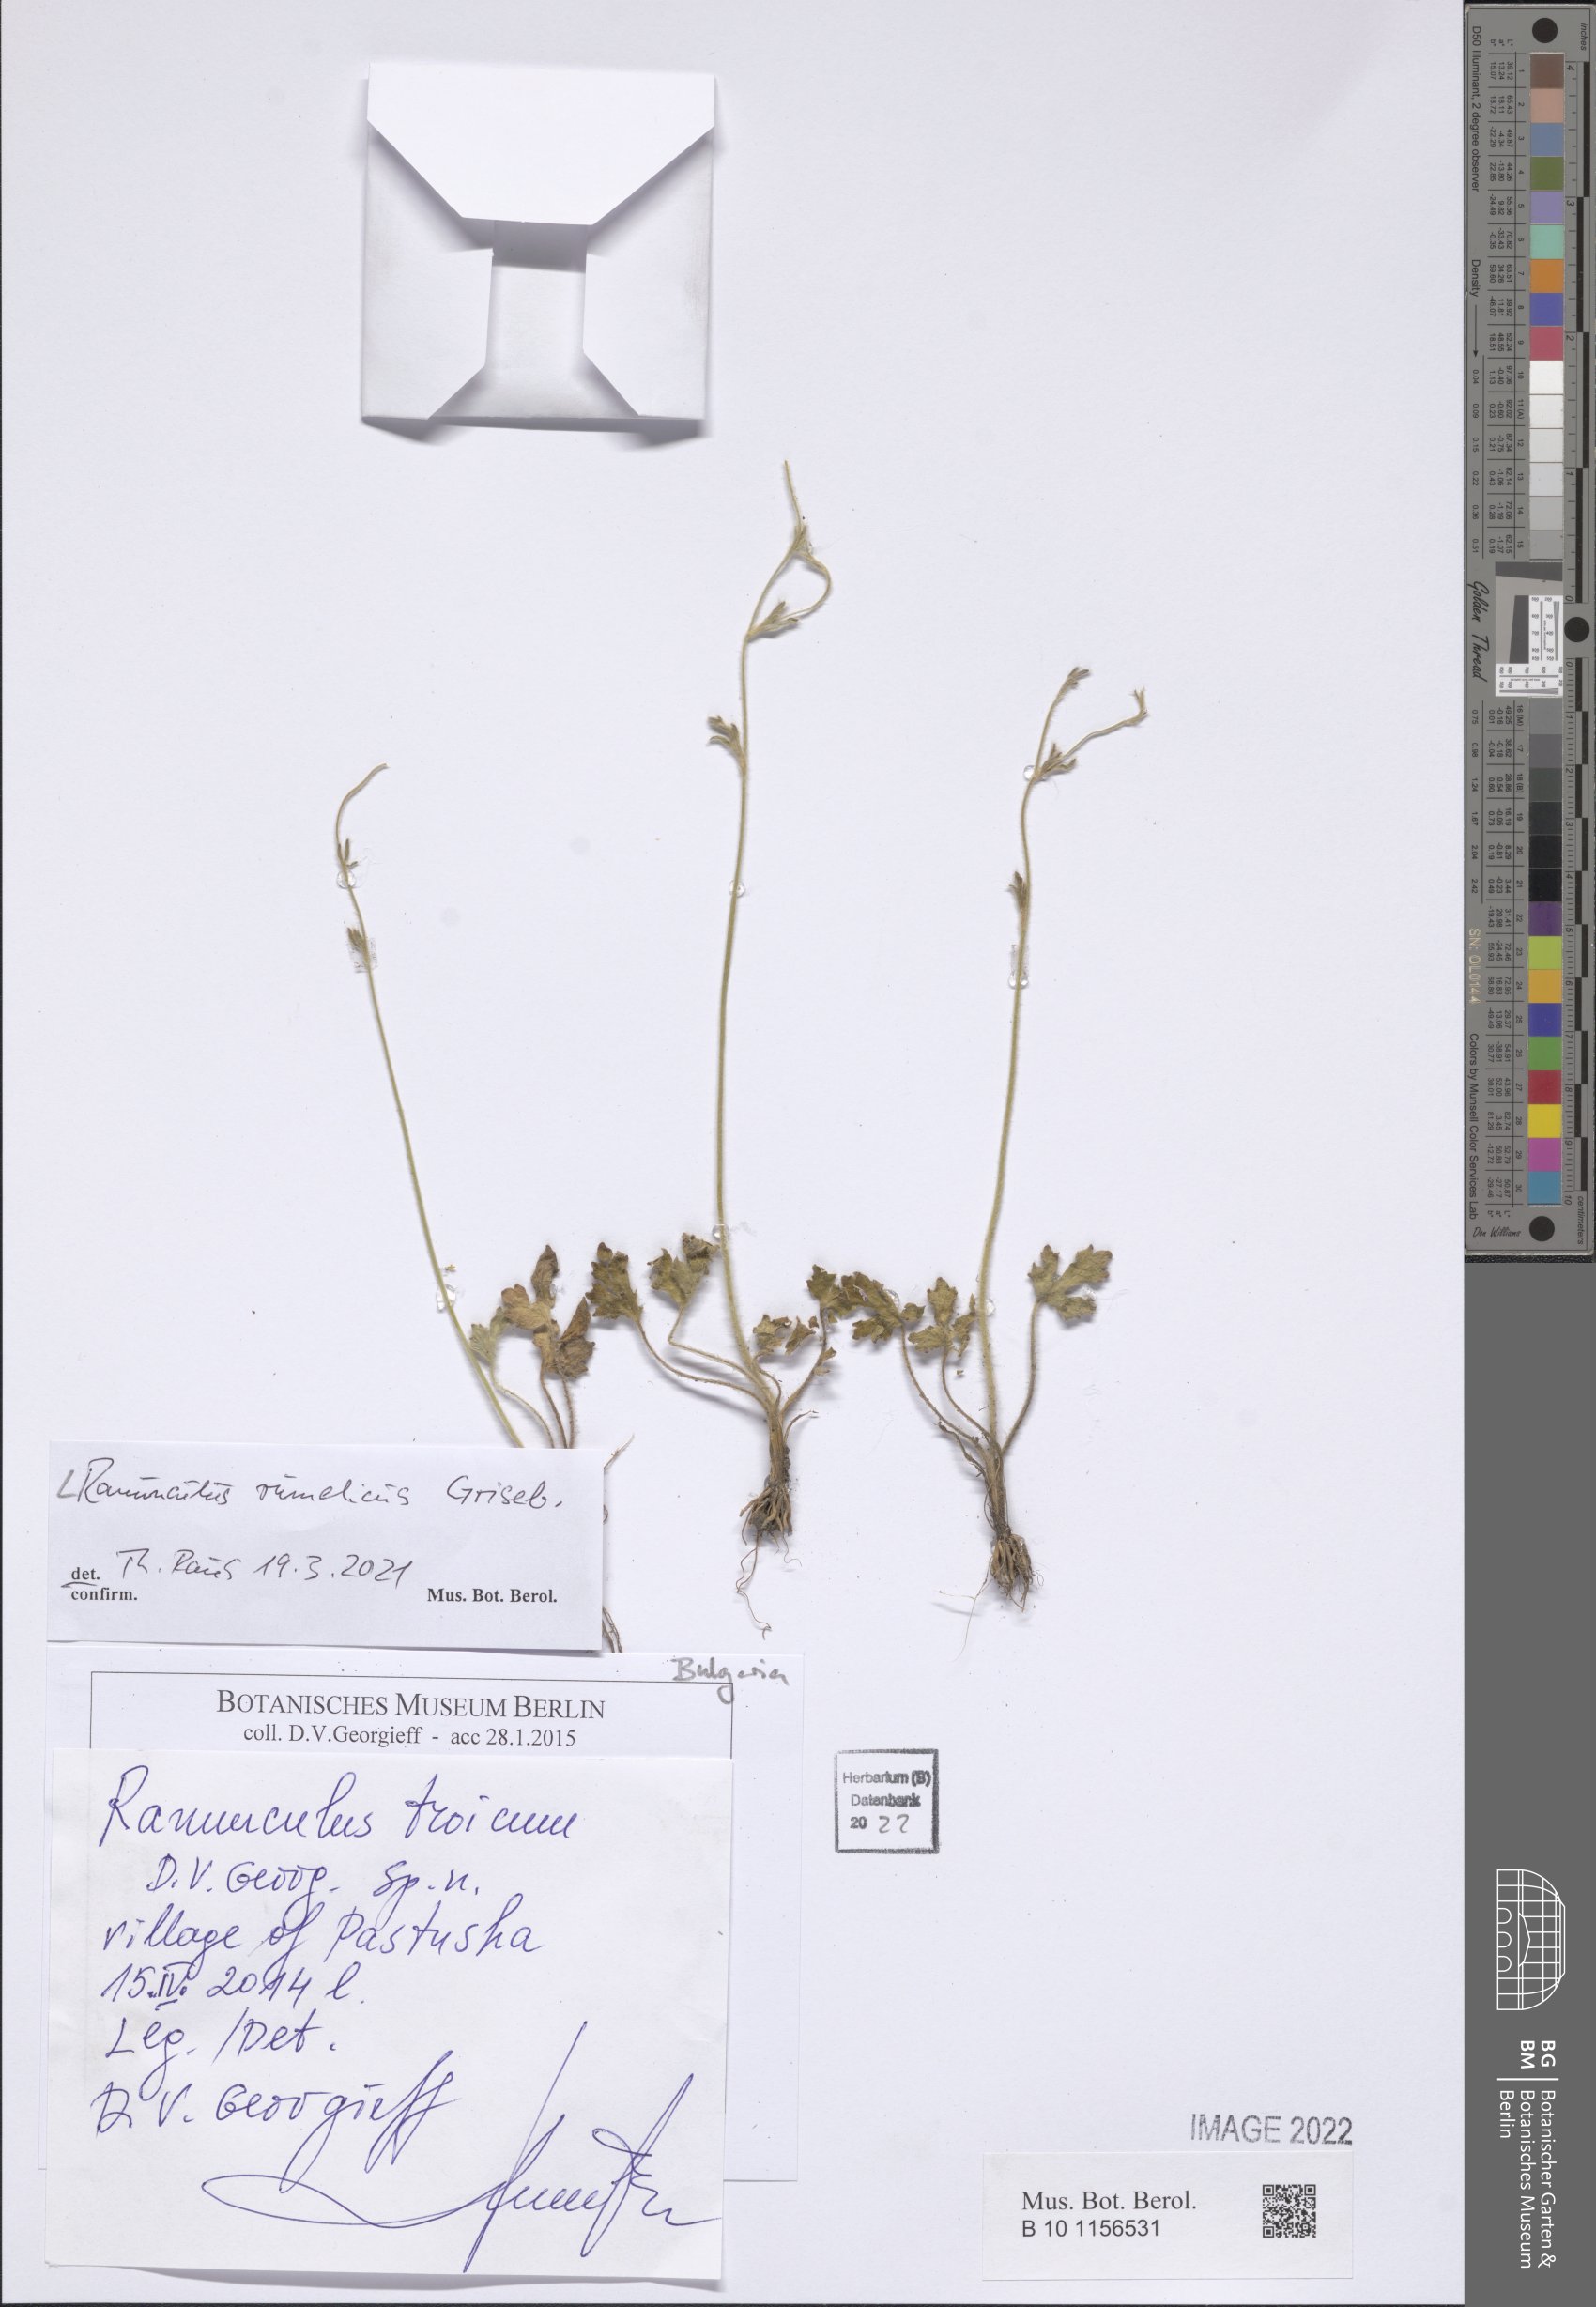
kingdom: Plantae
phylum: Tracheophyta
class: Magnoliopsida
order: Ranunculales
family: Ranunculaceae
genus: Ranunculus
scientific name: Ranunculus rumelicus
